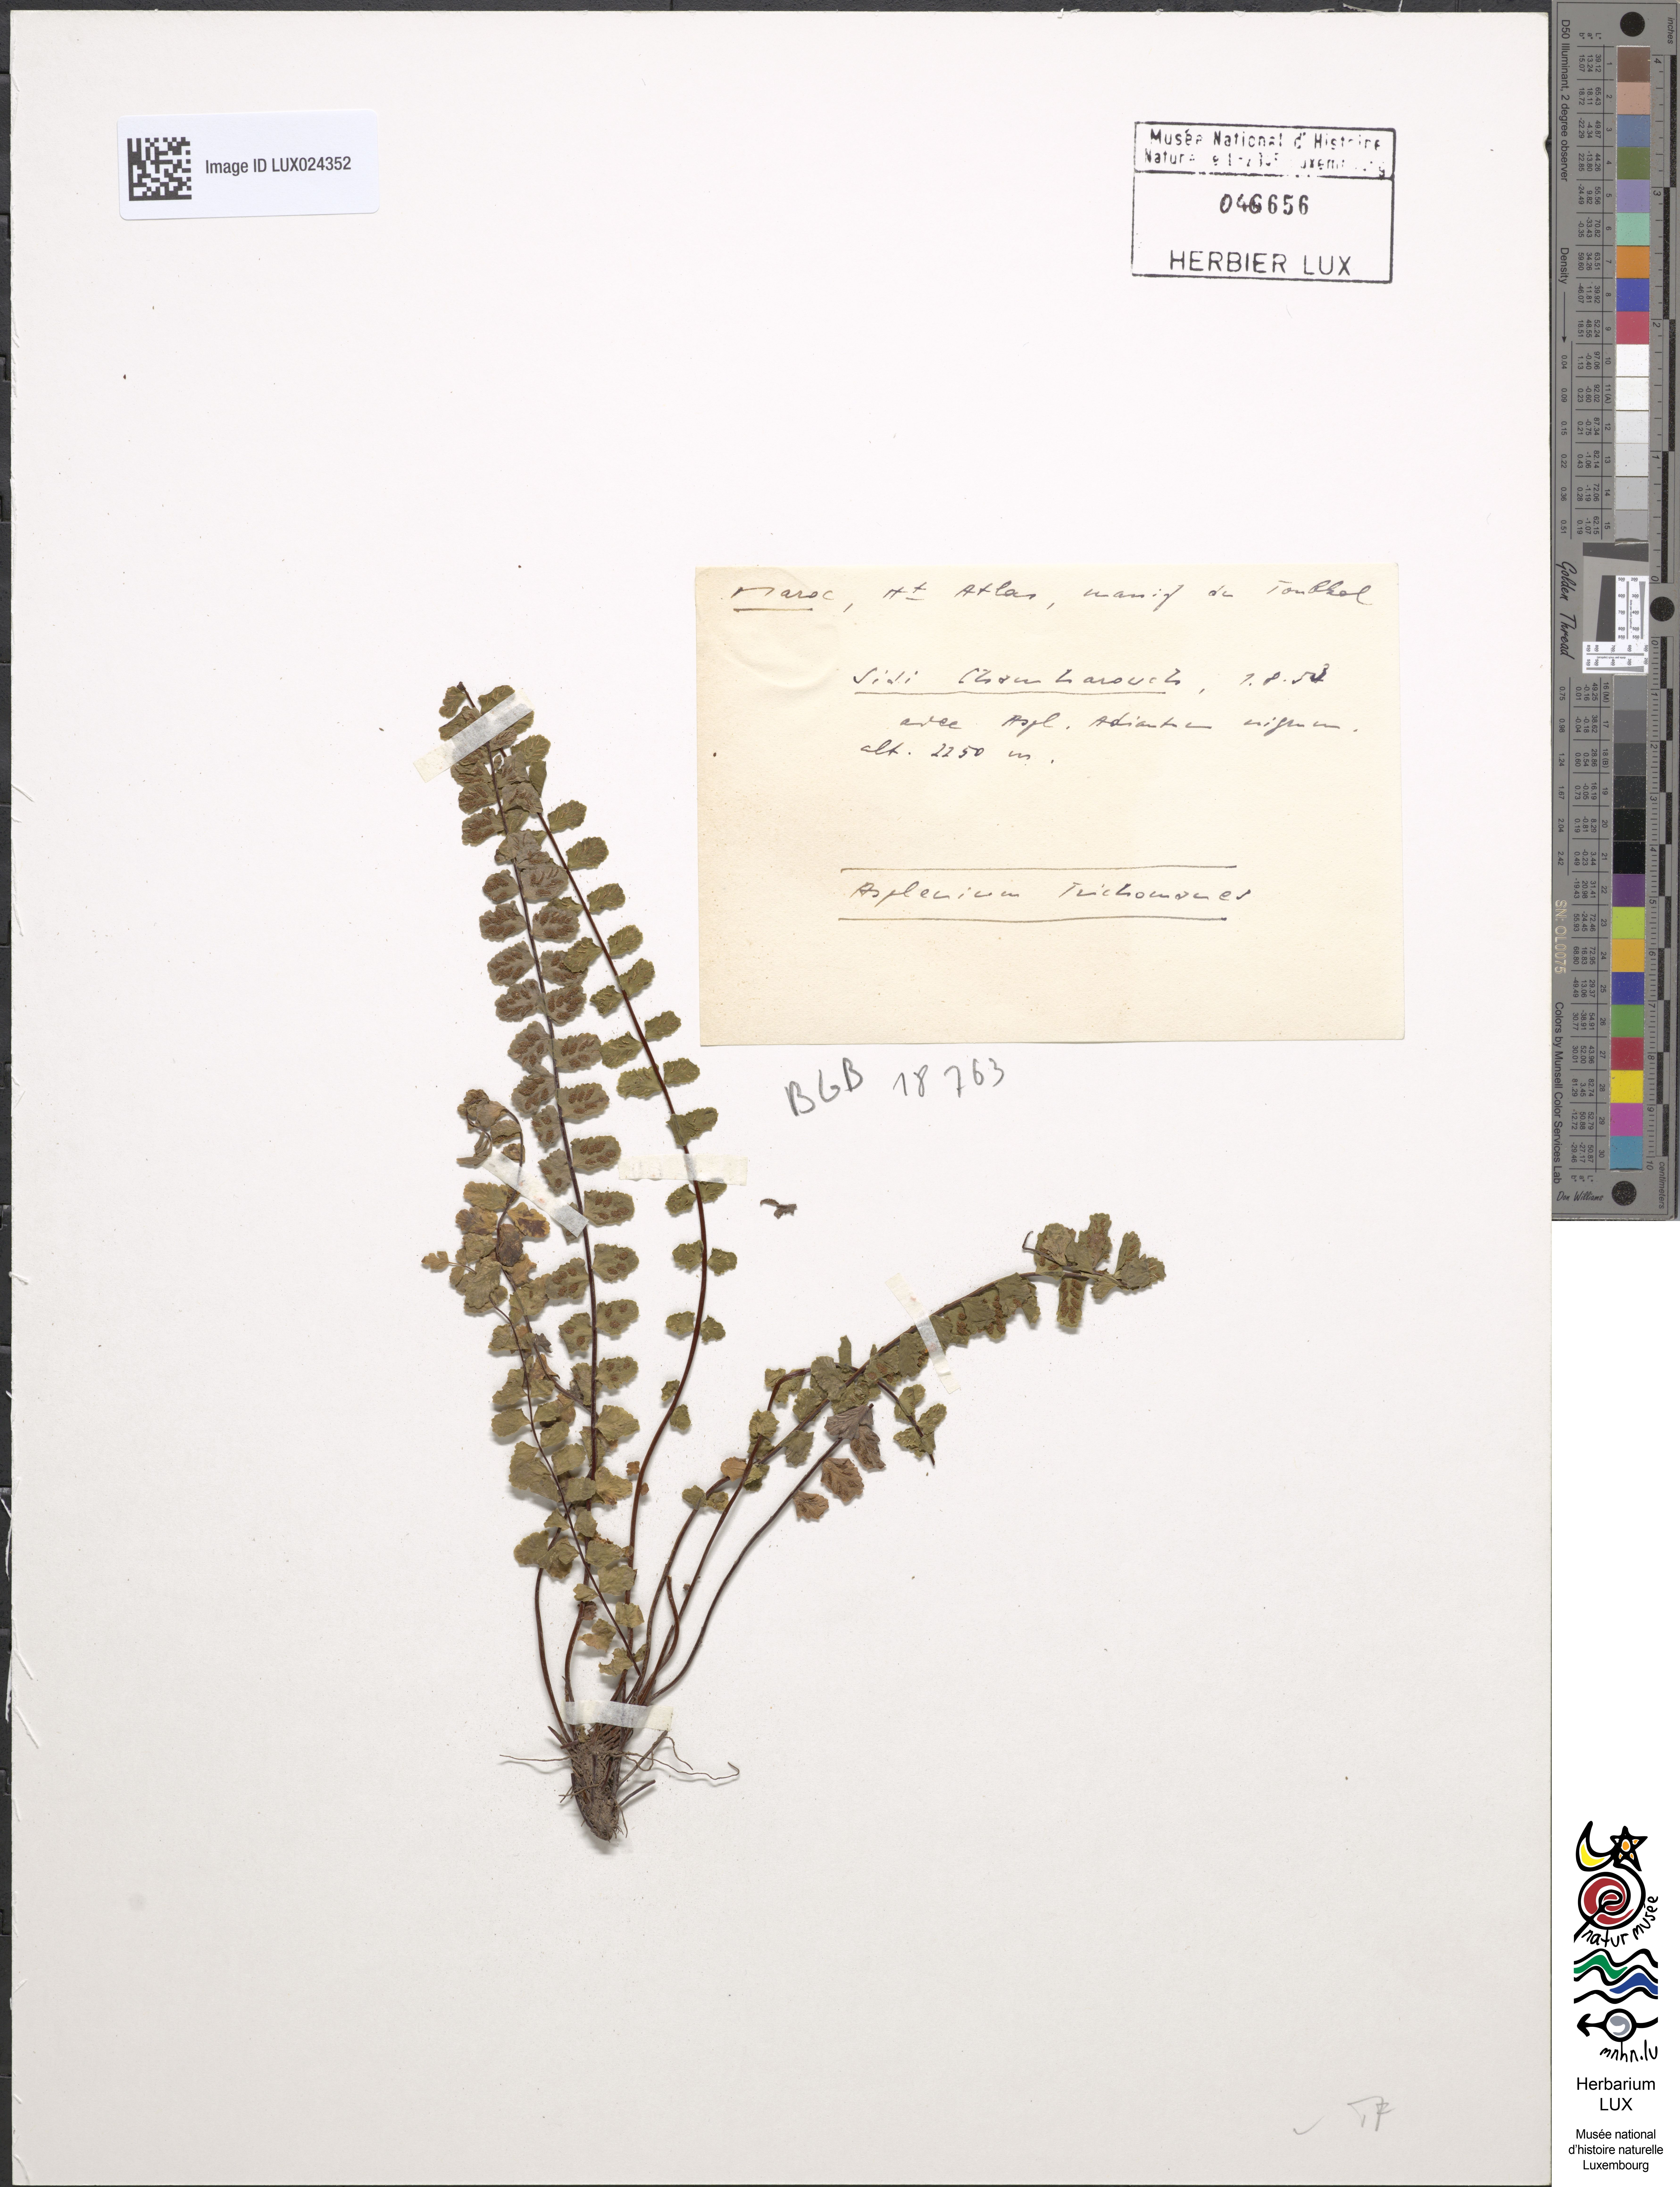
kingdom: Plantae
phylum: Tracheophyta
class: Polypodiopsida
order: Polypodiales
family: Aspleniaceae
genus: Asplenium
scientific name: Asplenium trichomanes
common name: Maidenhair spleenwort
